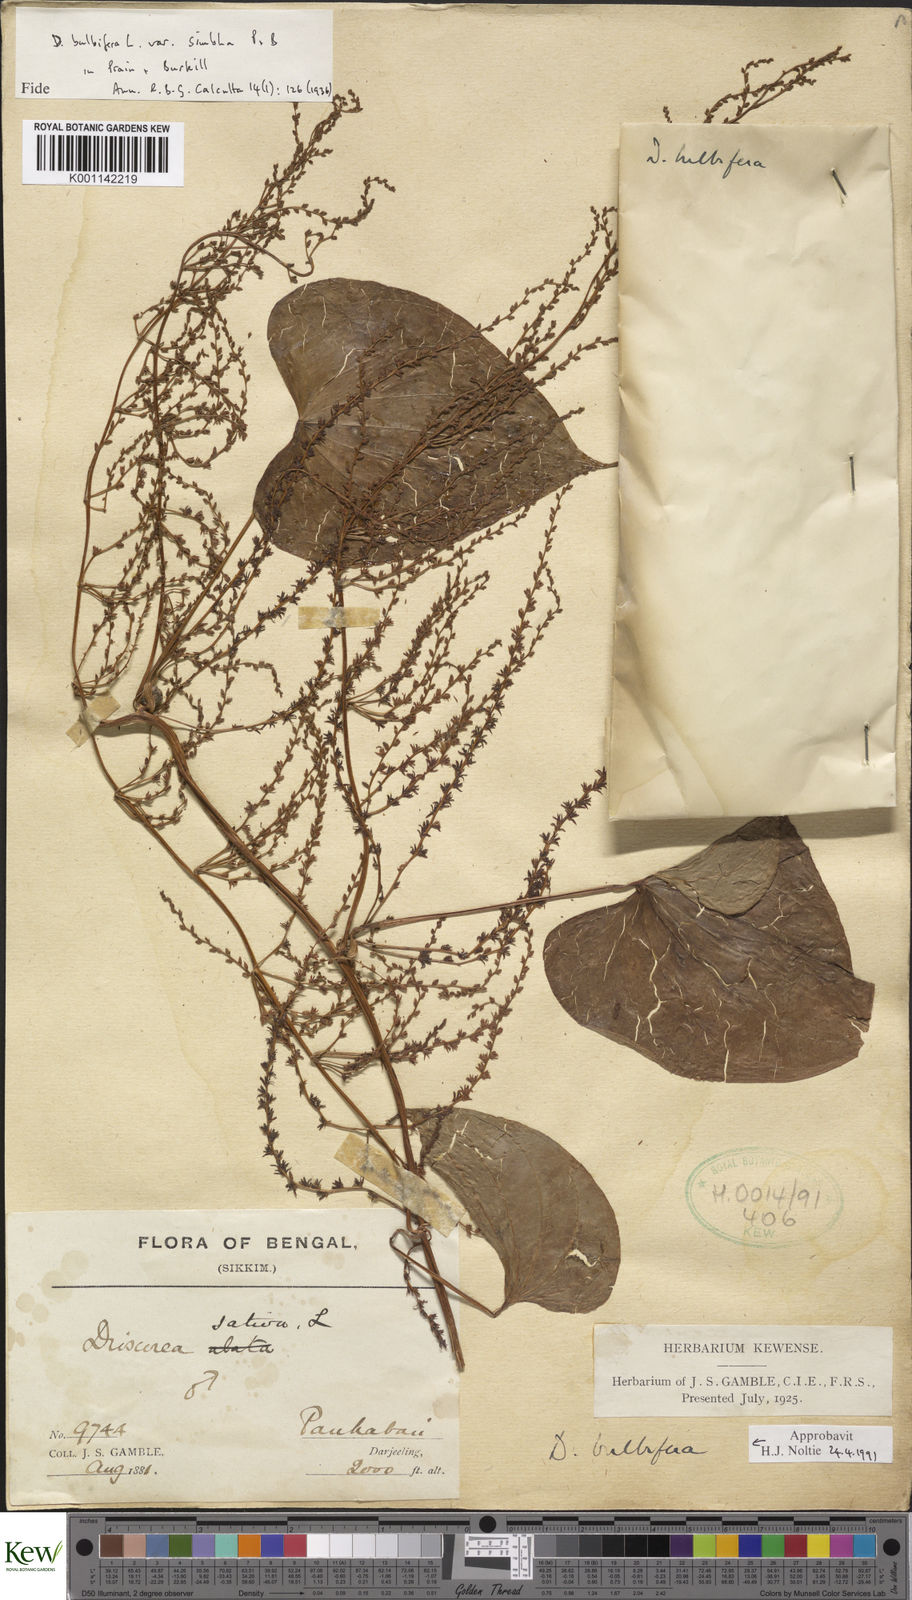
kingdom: Plantae
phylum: Tracheophyta
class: Liliopsida
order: Dioscoreales
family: Dioscoreaceae
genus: Dioscorea
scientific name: Dioscorea bulbifera
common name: Air yam
